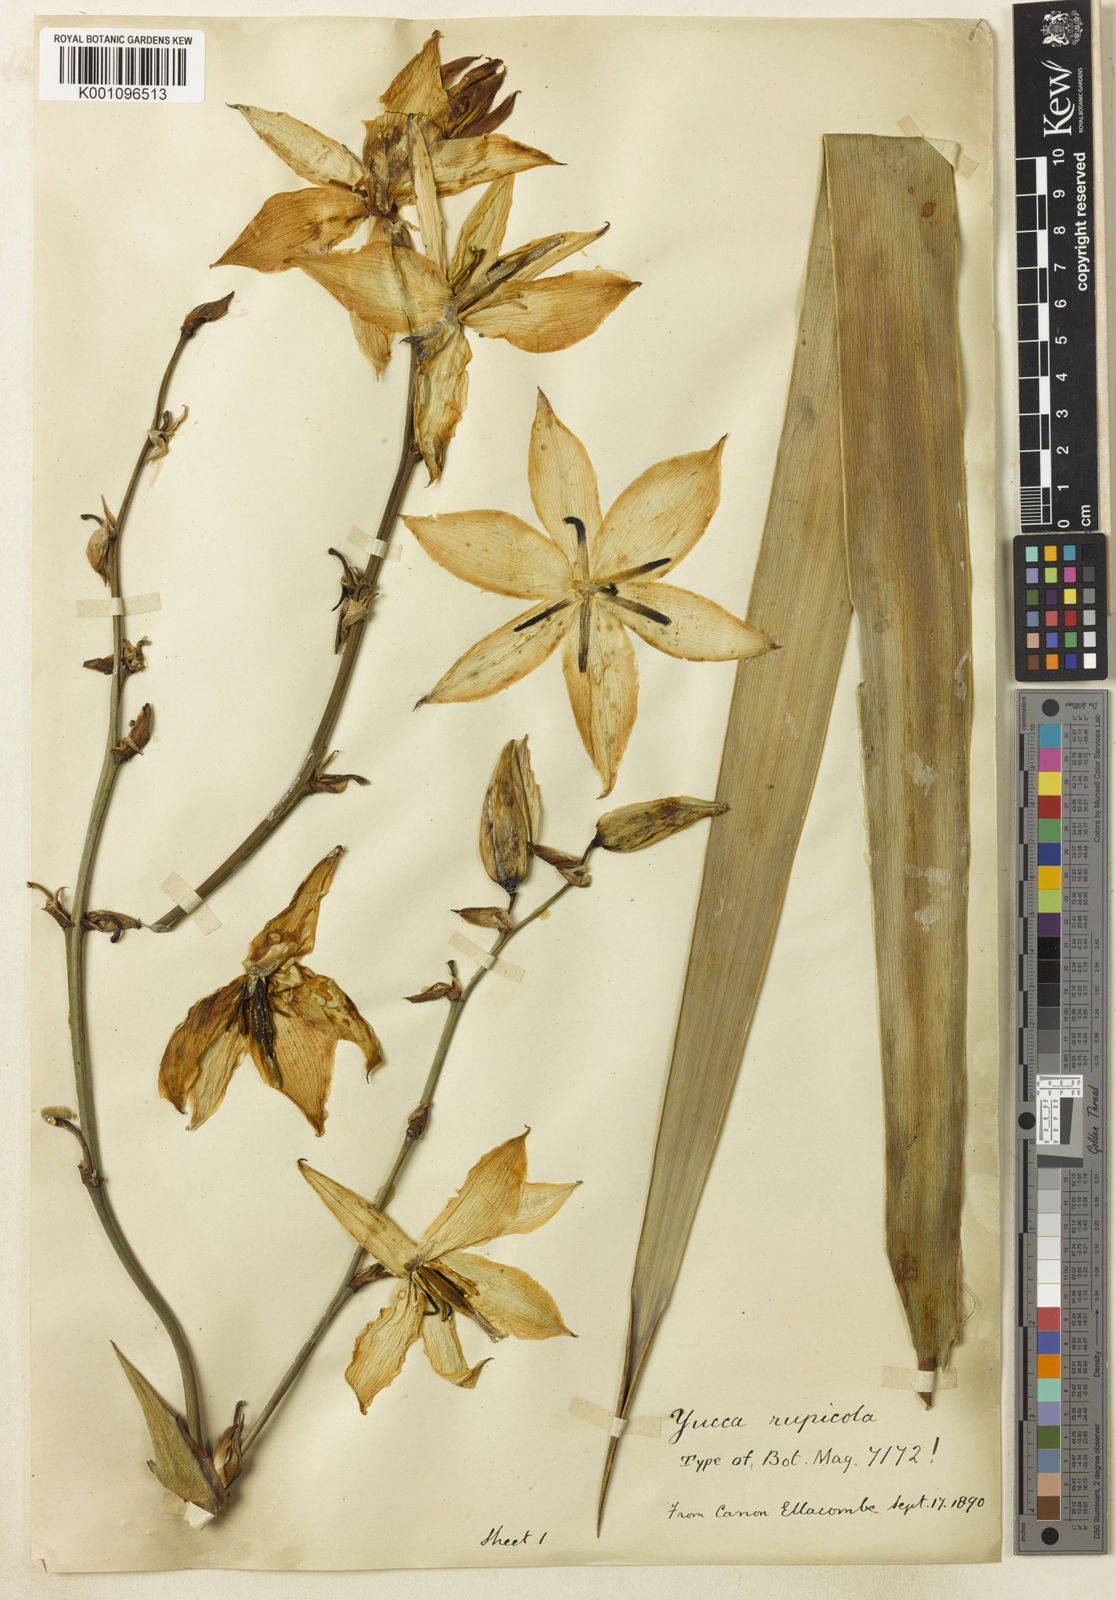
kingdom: Plantae
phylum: Tracheophyta
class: Liliopsida
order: Asparagales
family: Asparagaceae
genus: Yucca
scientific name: Yucca rupicola
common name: Twisted-leaf spanish-dagger
